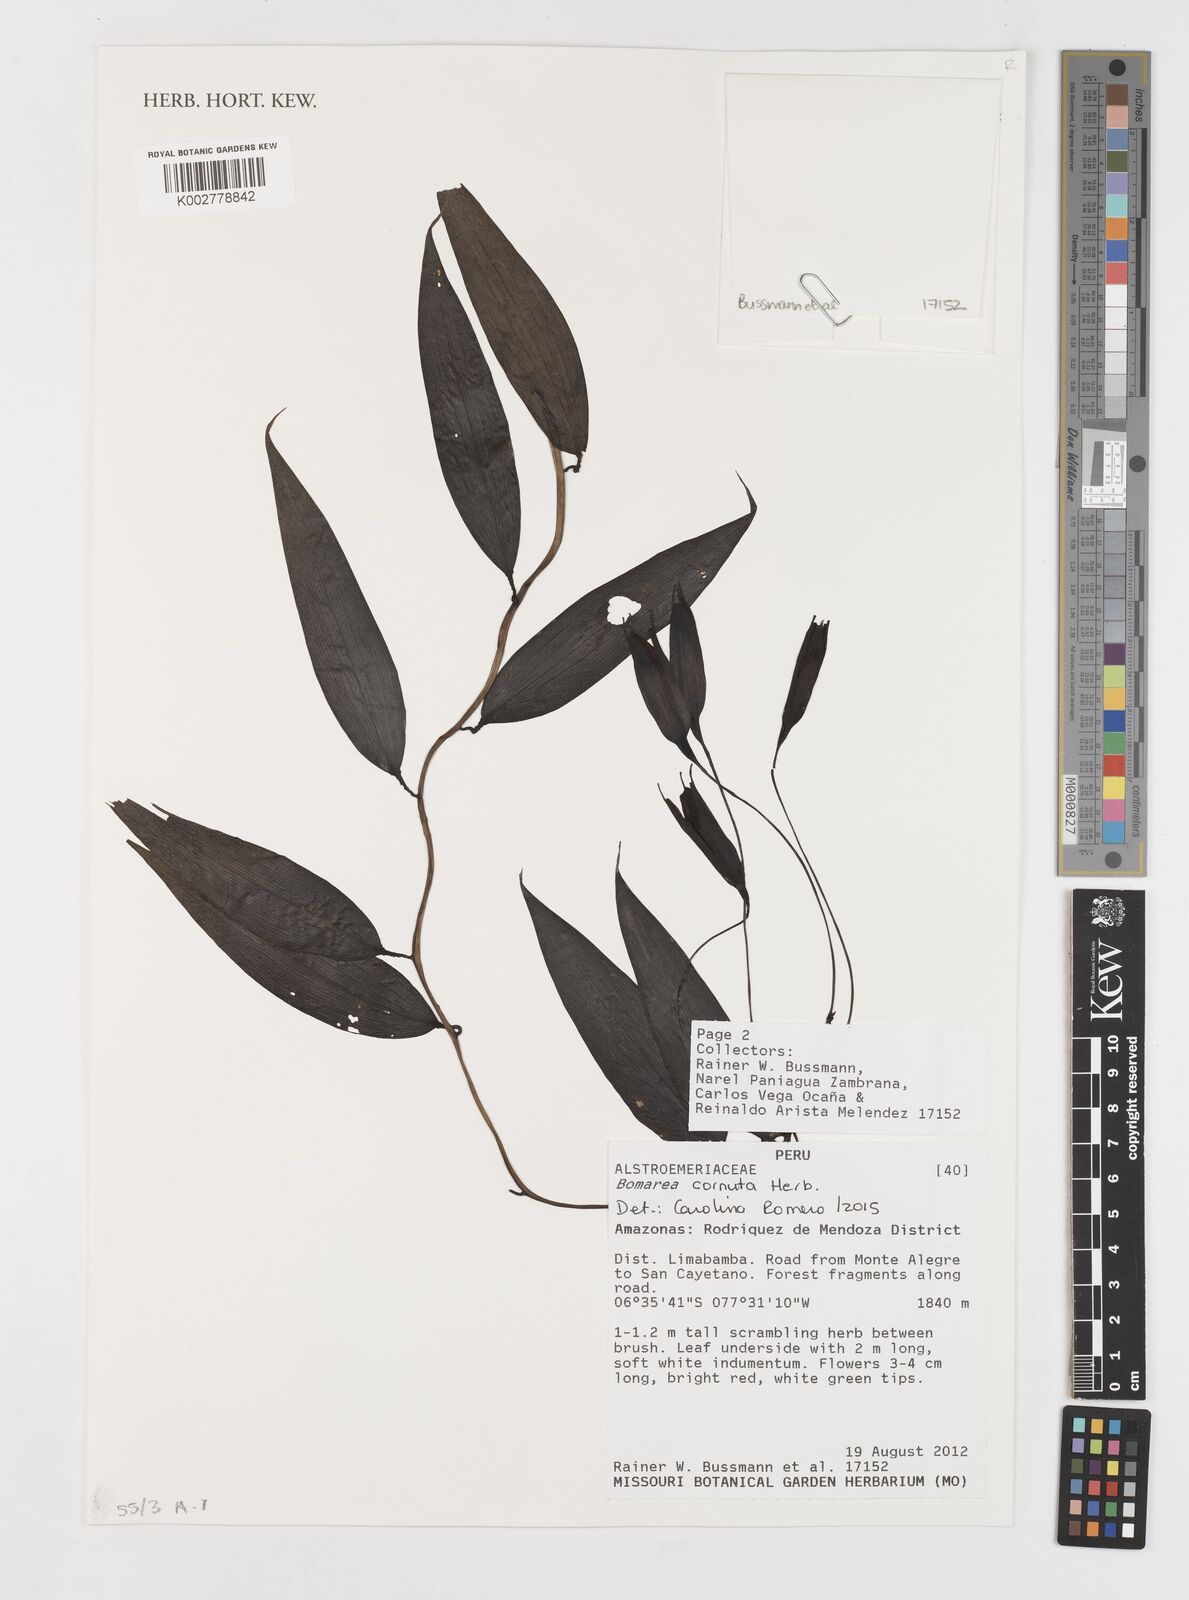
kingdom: Plantae
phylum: Tracheophyta
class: Liliopsida
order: Liliales
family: Alstroemeriaceae
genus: Bomarea
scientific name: Bomarea cornuta
